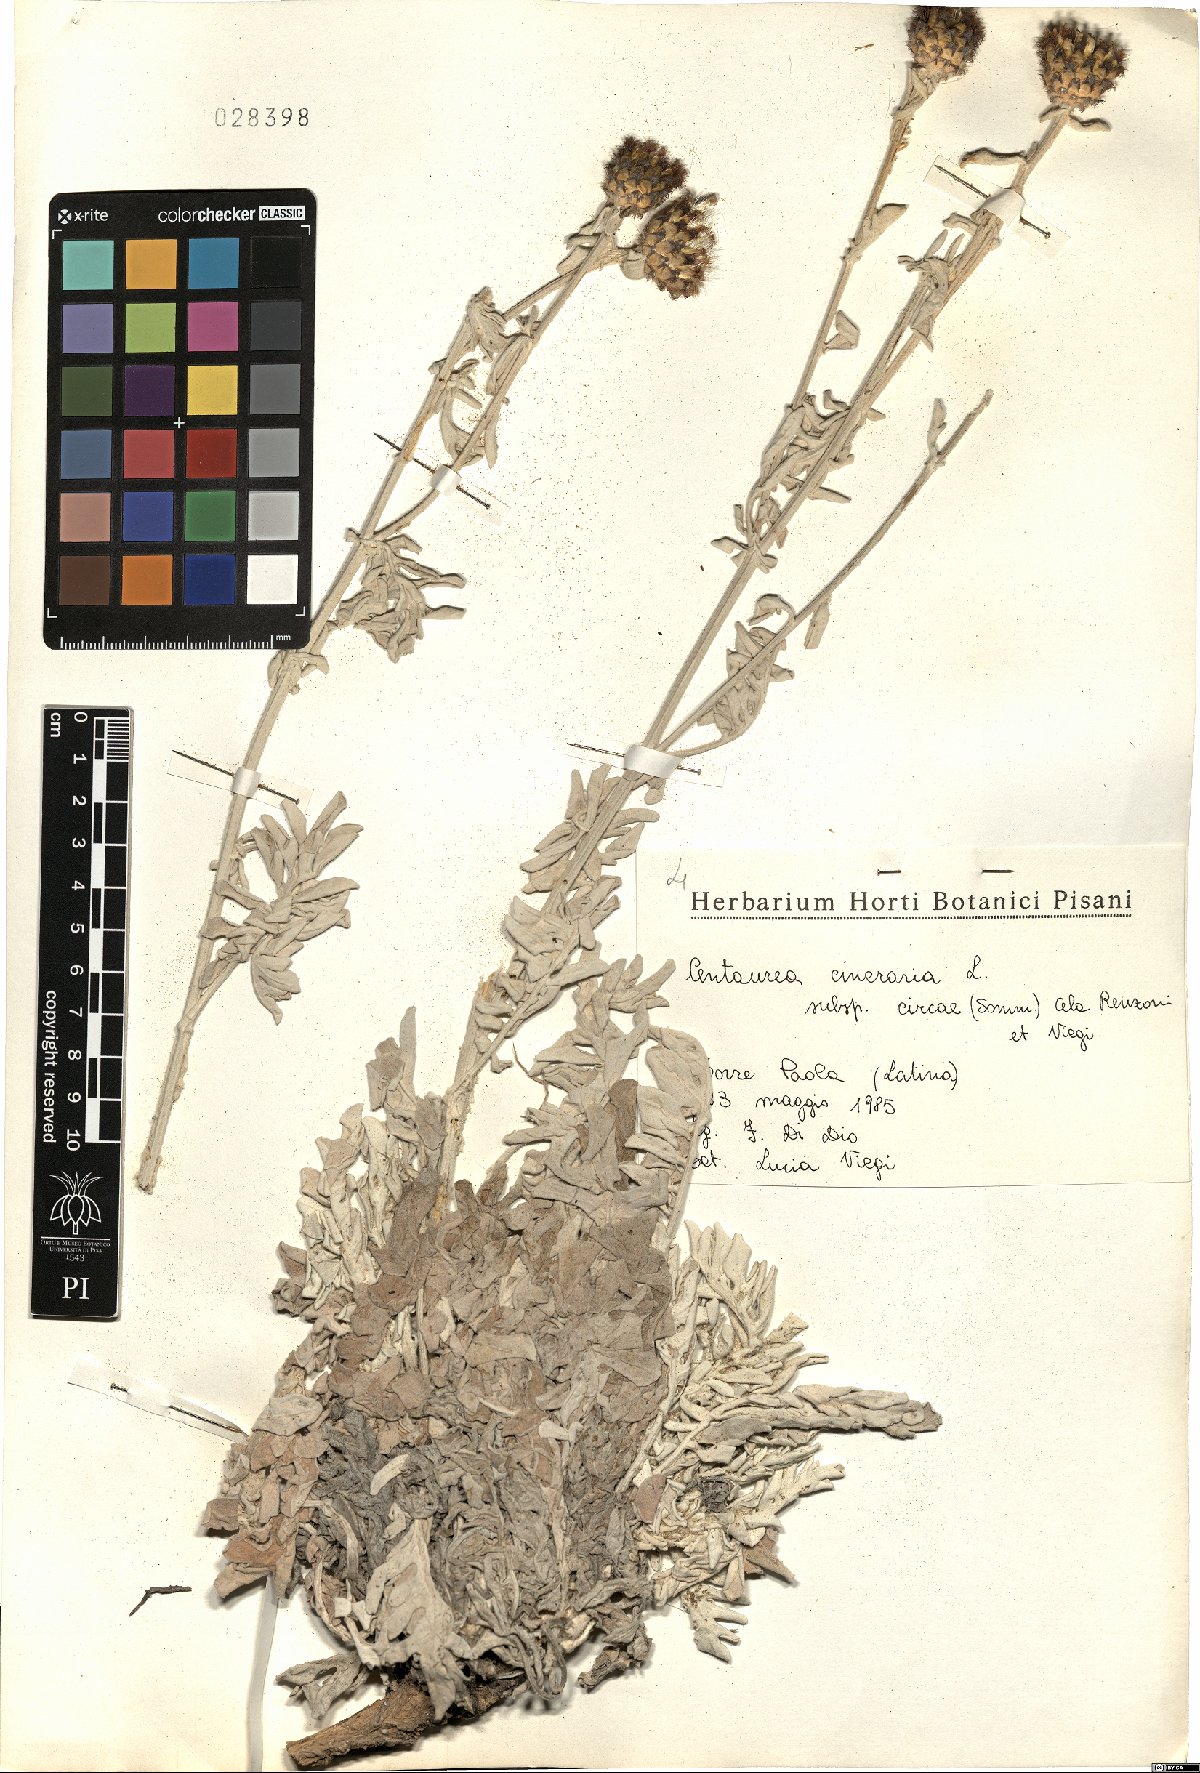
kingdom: Plantae
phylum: Tracheophyta
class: Magnoliopsida
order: Asterales
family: Asteraceae
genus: Centaurea
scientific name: Centaurea cineraria
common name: Dusty miller
